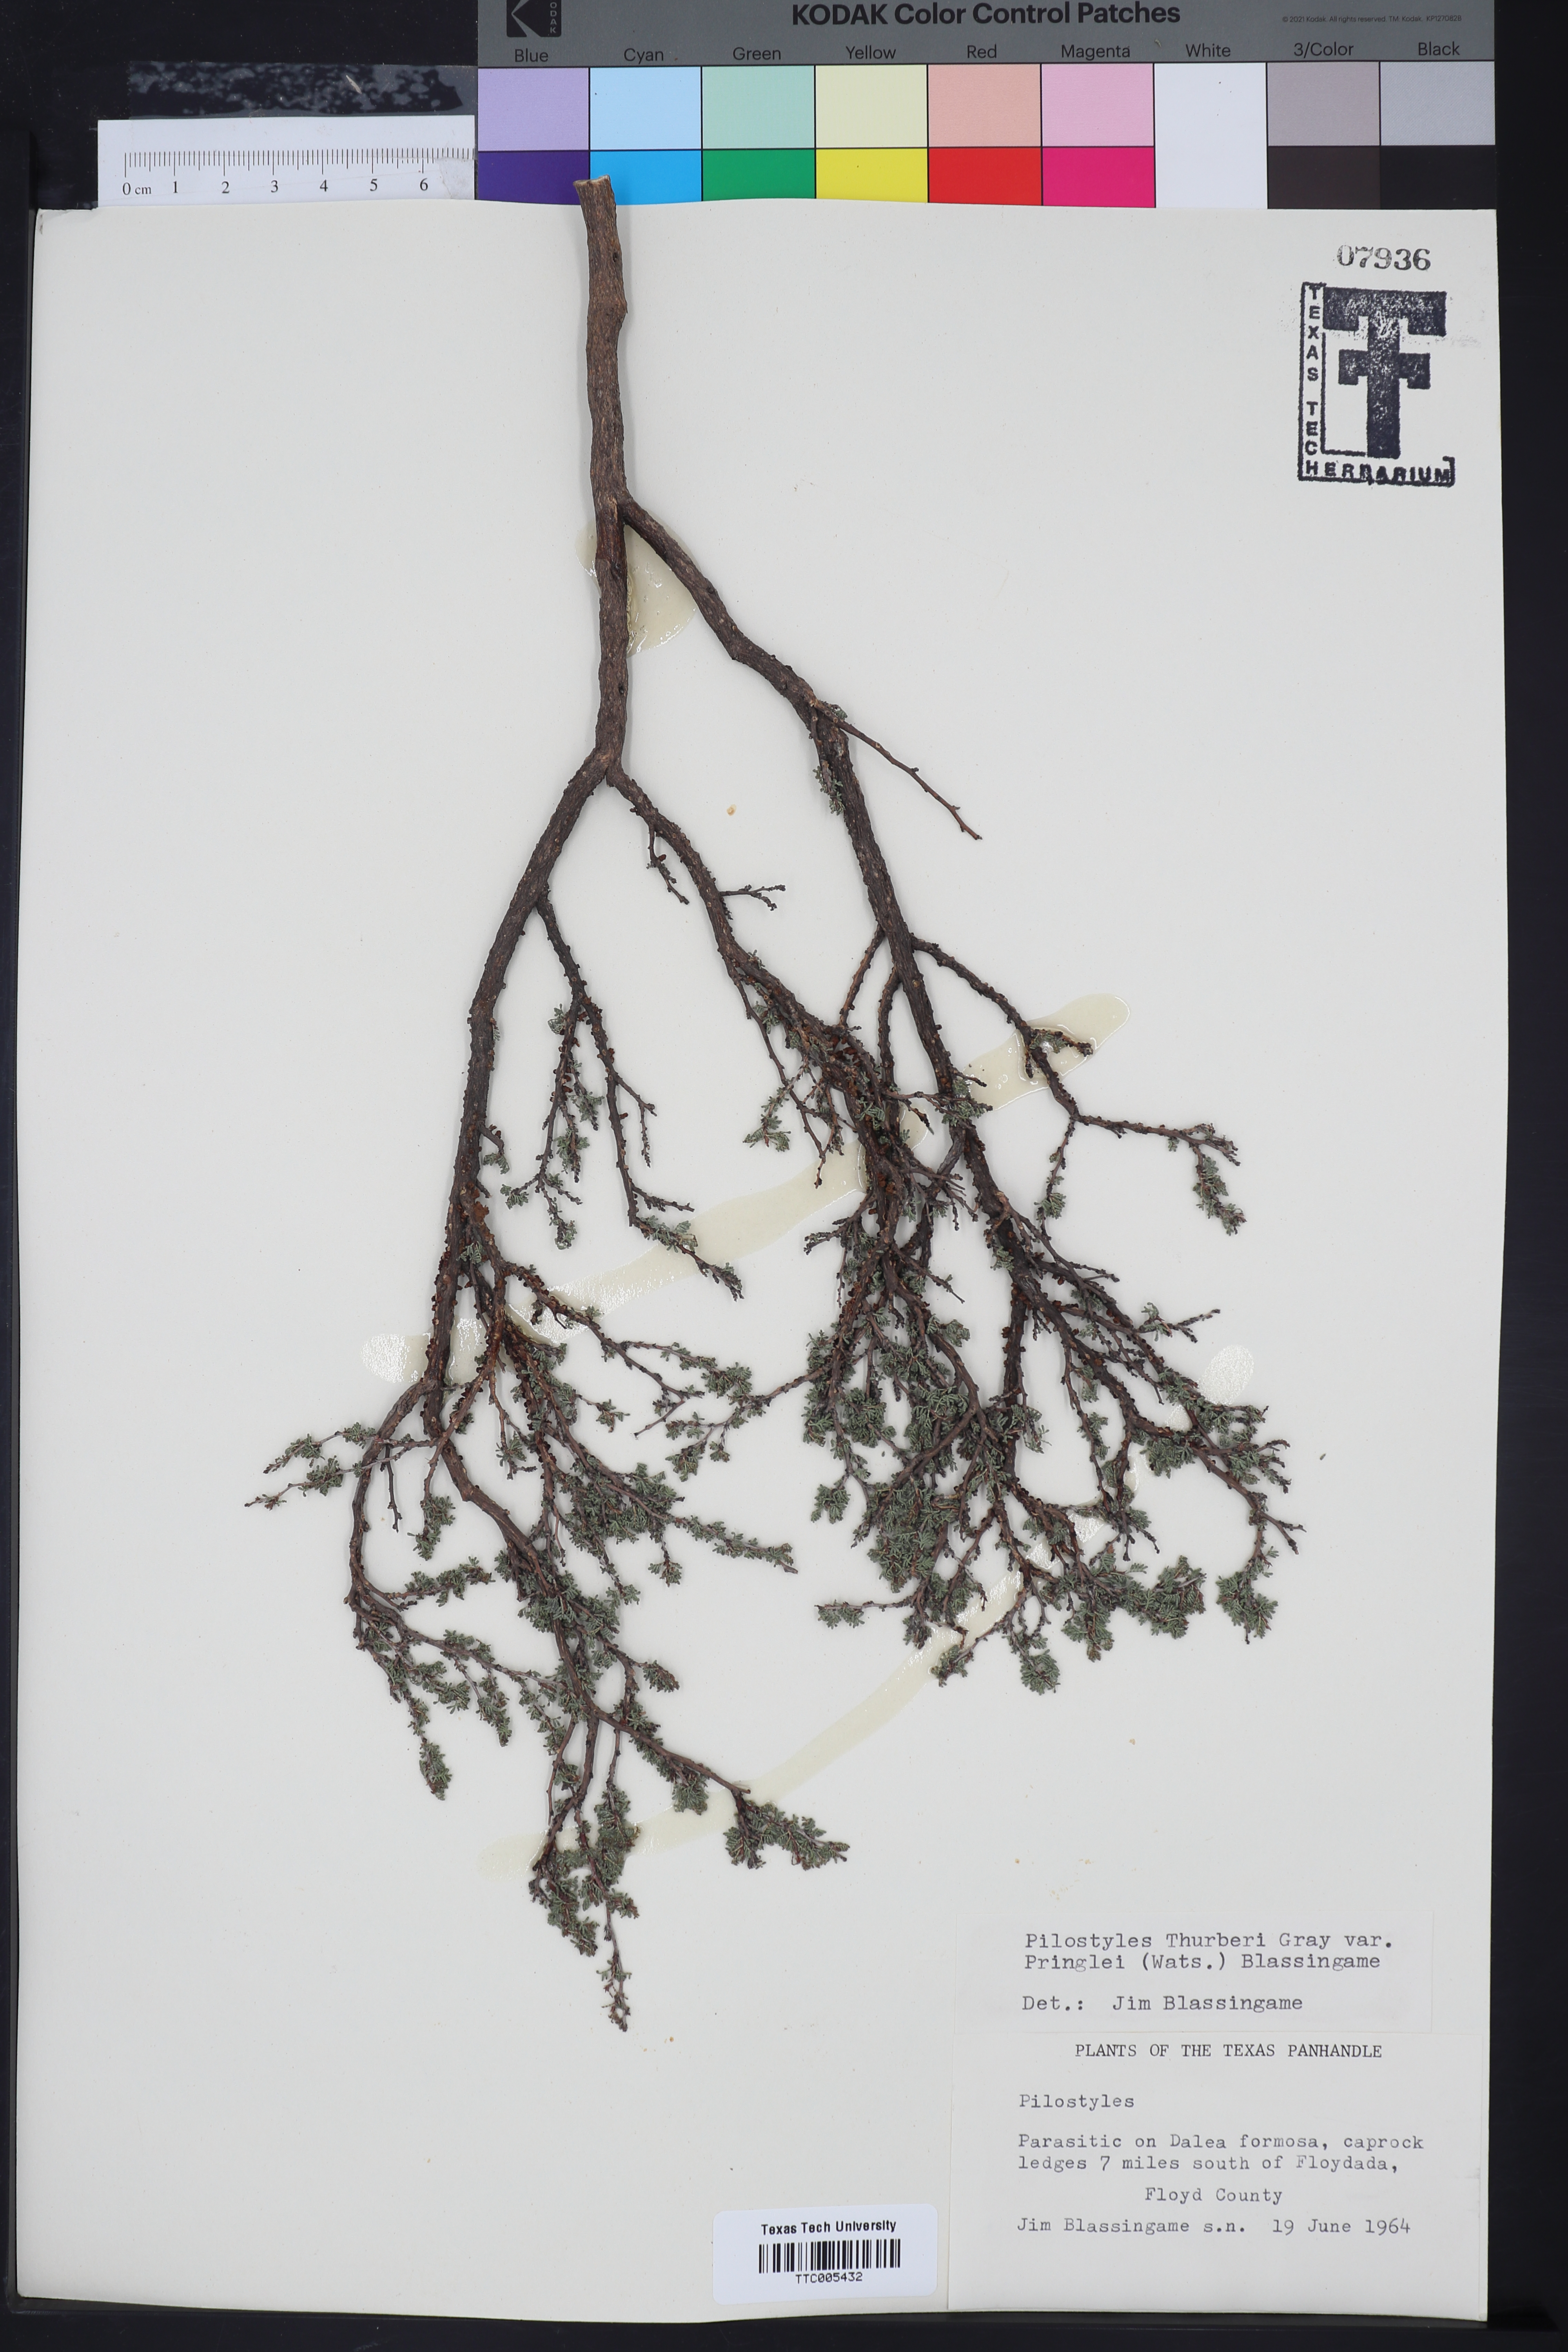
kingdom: Plantae
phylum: Tracheophyta
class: Magnoliopsida
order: Cucurbitales
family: Apodanthaceae
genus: Pilostyles
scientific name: Pilostyles thurberi
